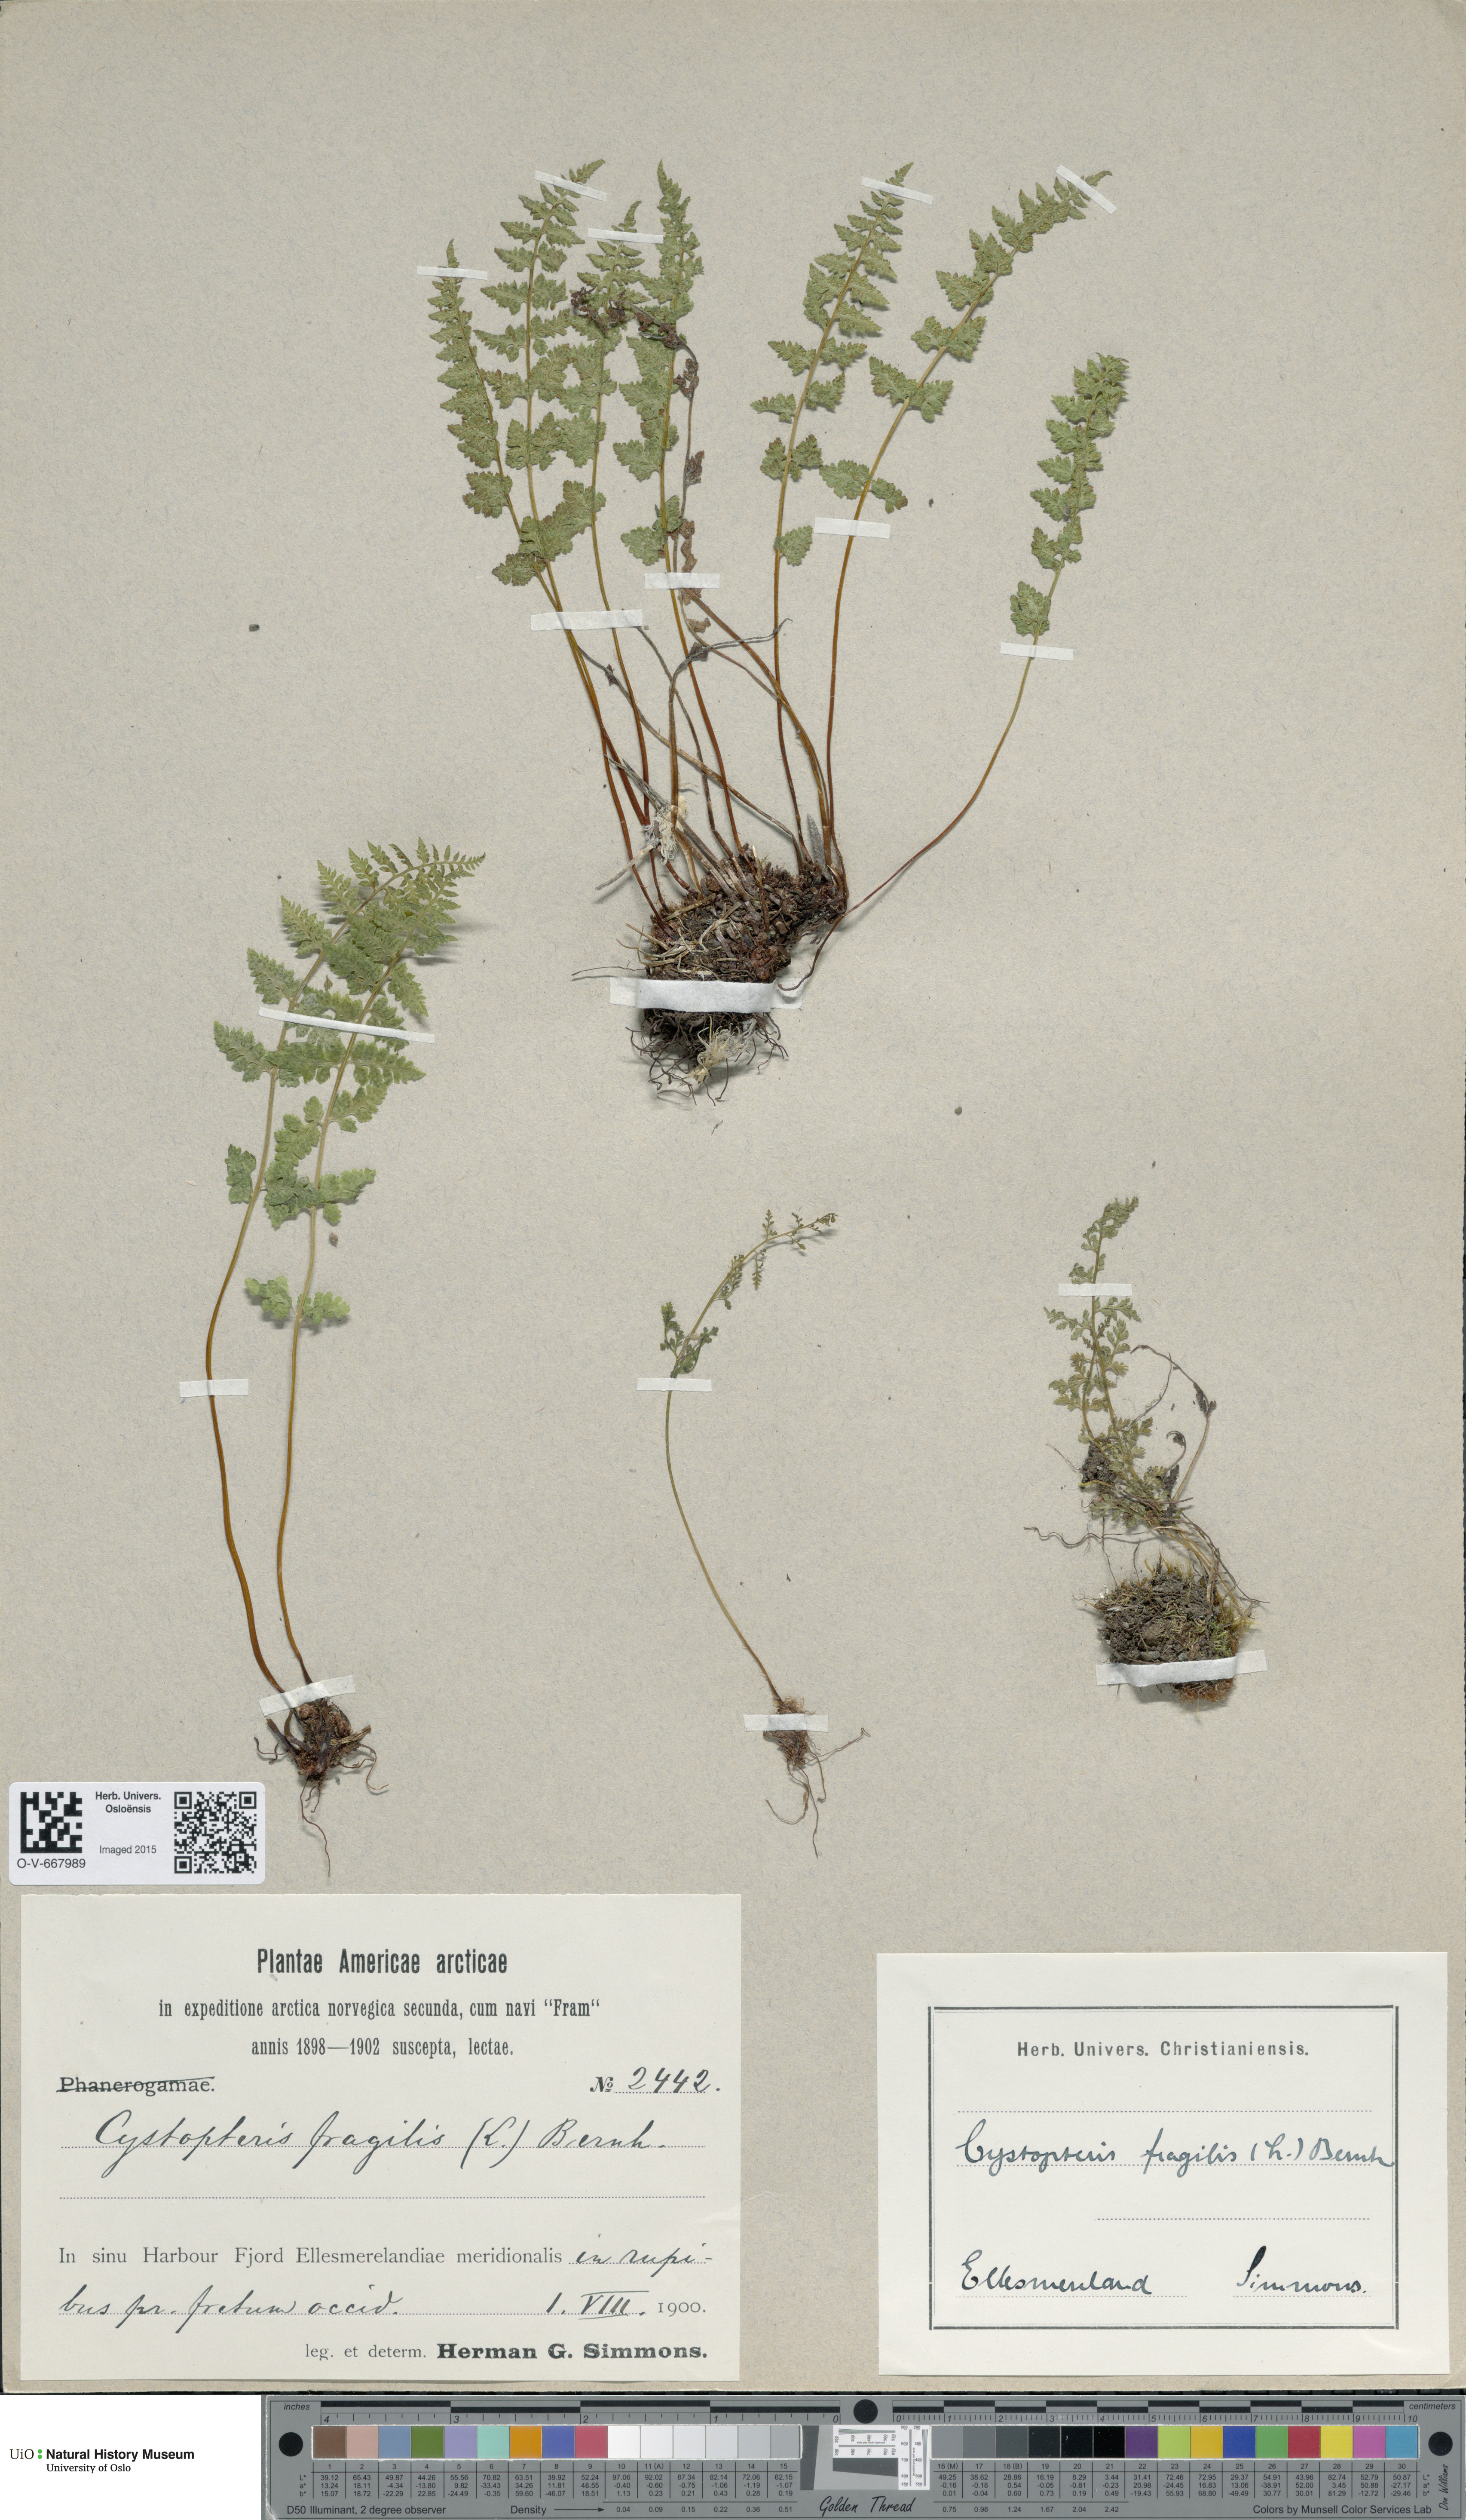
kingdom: Plantae
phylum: Tracheophyta
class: Polypodiopsida
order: Polypodiales
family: Cystopteridaceae
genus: Cystopteris
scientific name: Cystopteris fragilis
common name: Brittle bladder fern
